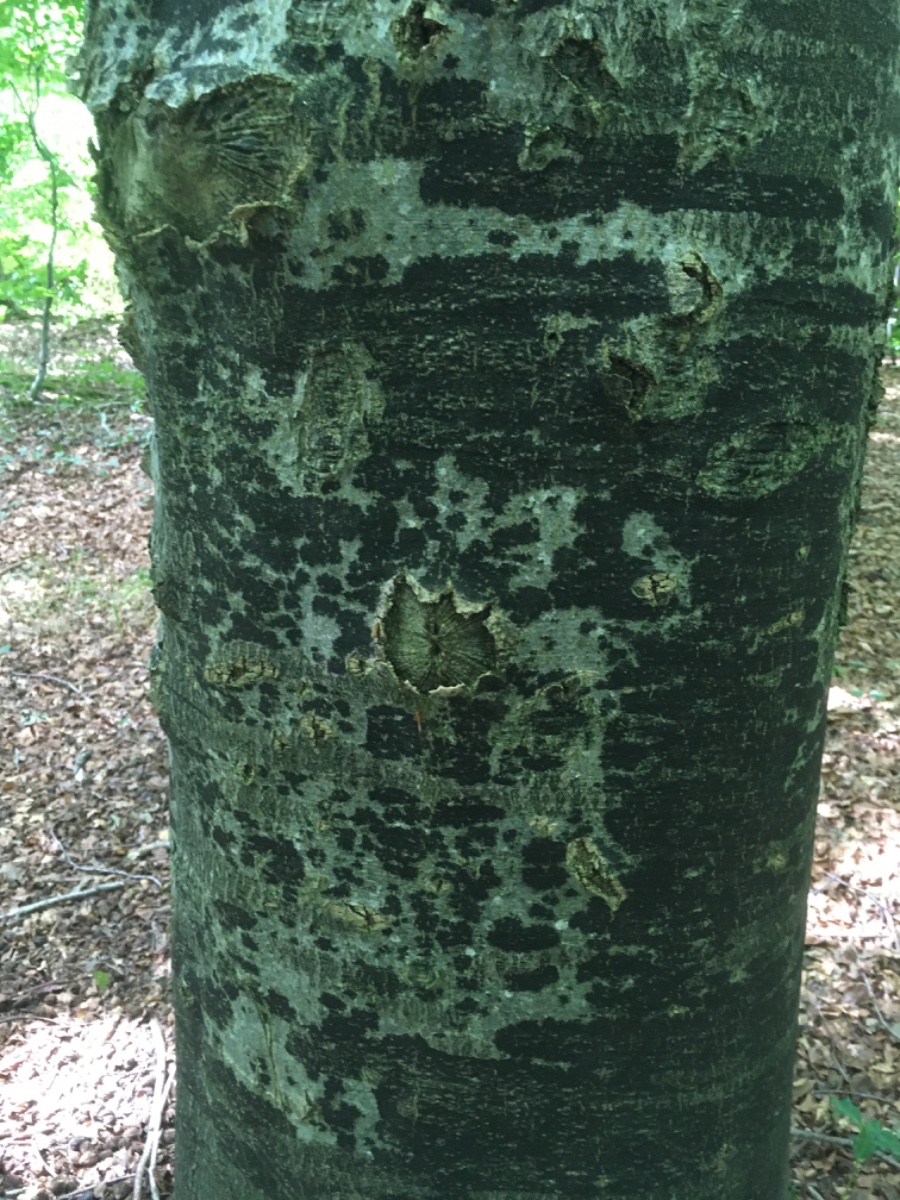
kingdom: Fungi
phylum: Ascomycota
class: Leotiomycetes
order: Rhytismatales
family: Ascodichaenaceae
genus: Ascodichaena
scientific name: Ascodichaena rugosa
